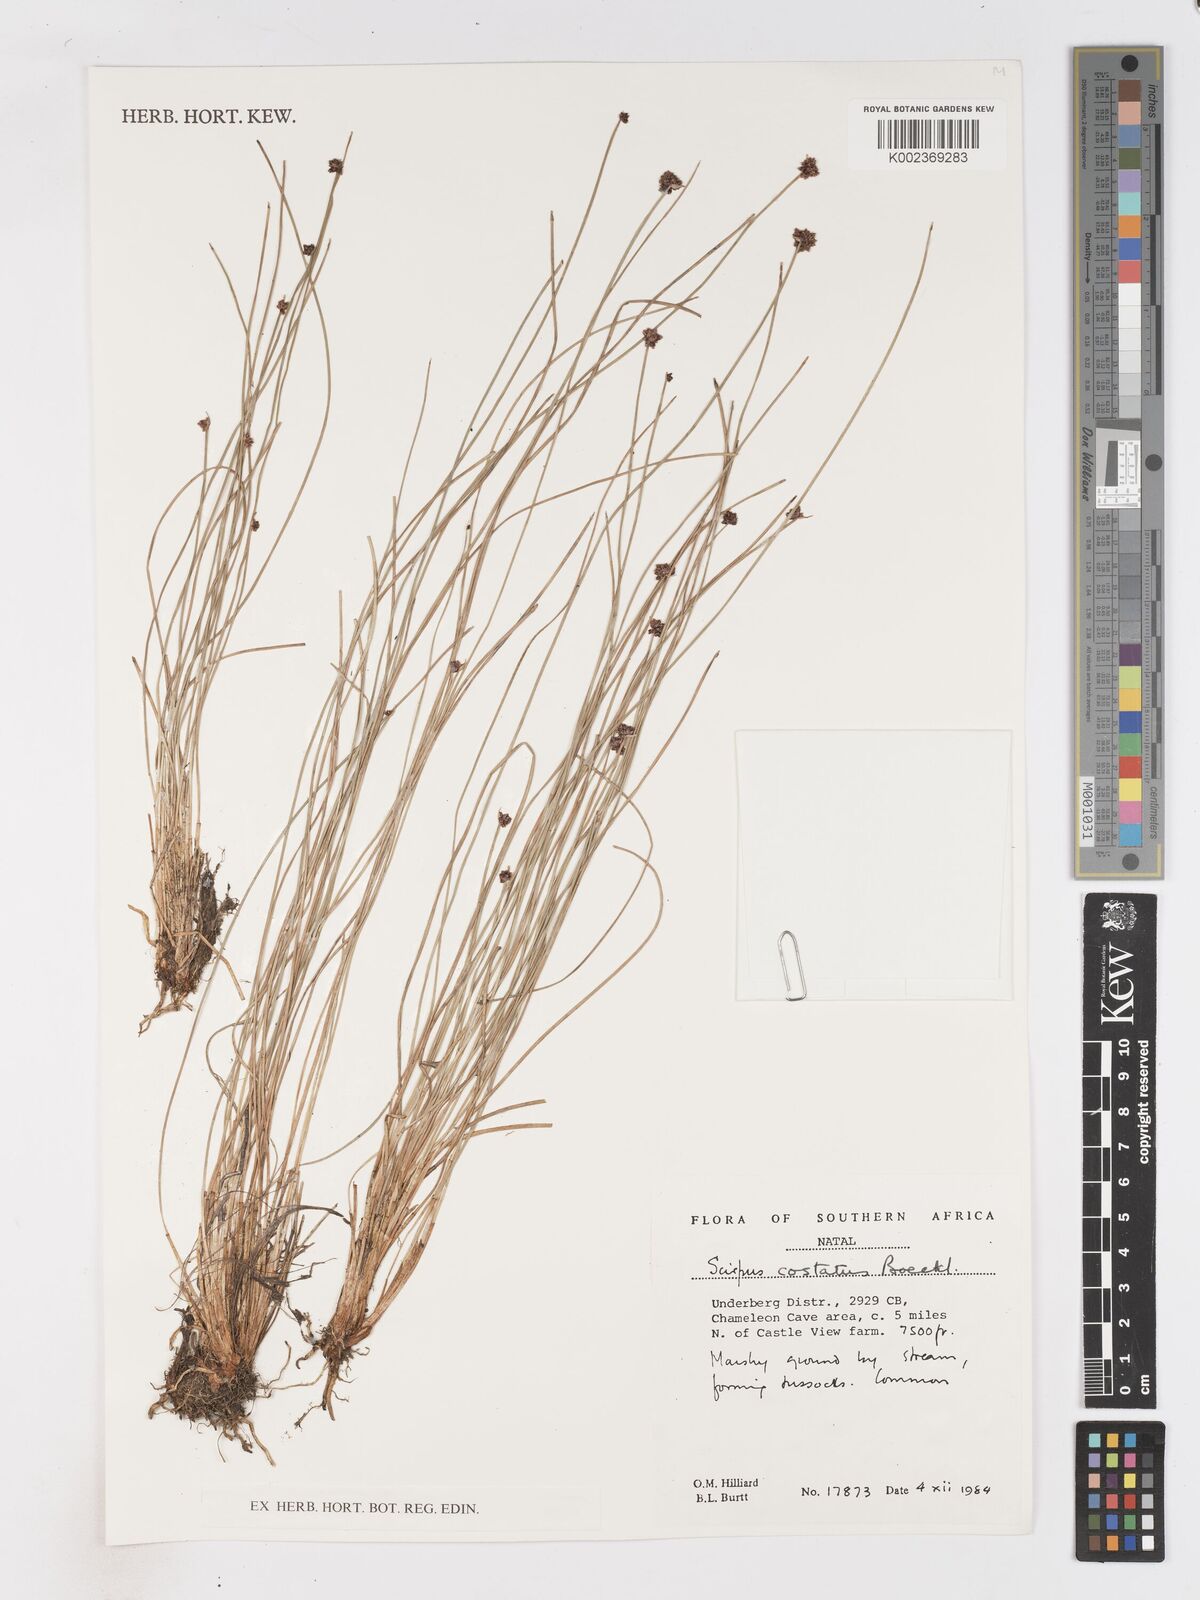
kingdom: Plantae
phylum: Tracheophyta
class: Liliopsida
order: Poales
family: Cyperaceae
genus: Isolepis
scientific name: Isolepis costata
